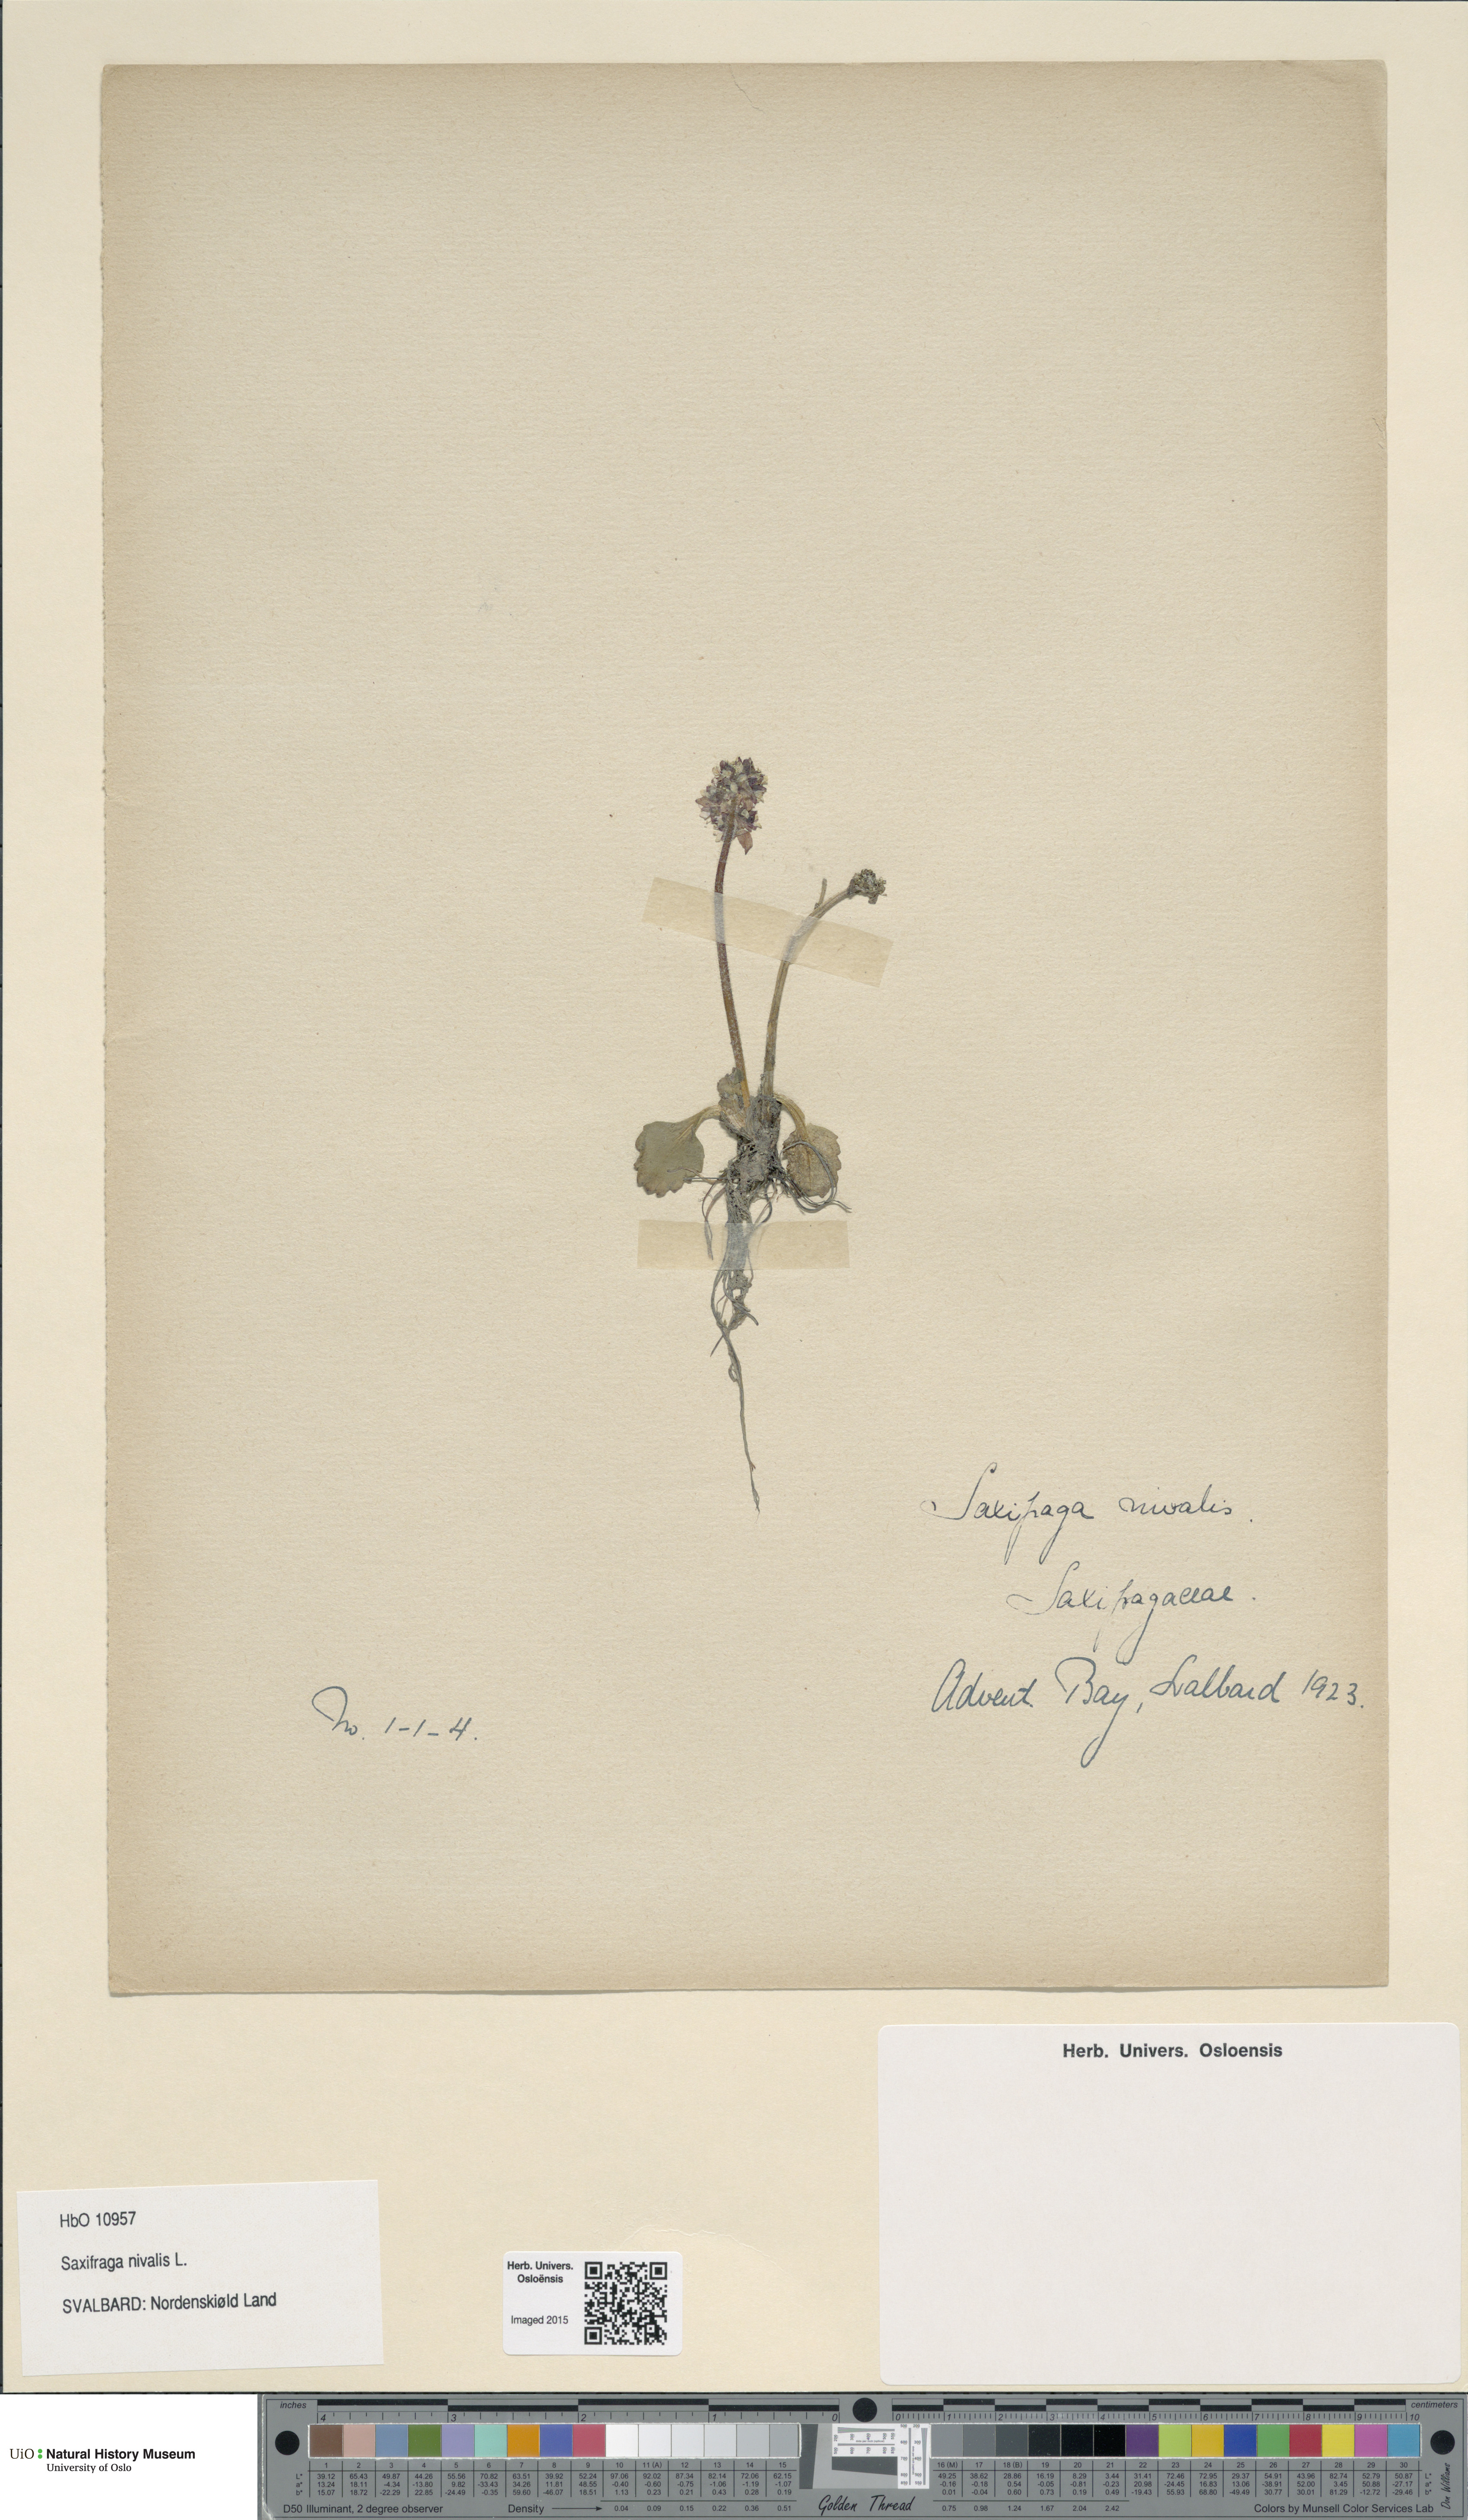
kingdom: Plantae
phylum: Tracheophyta
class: Magnoliopsida
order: Saxifragales
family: Saxifragaceae
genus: Micranthes
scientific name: Micranthes nivalis
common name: Alpine saxifrage
